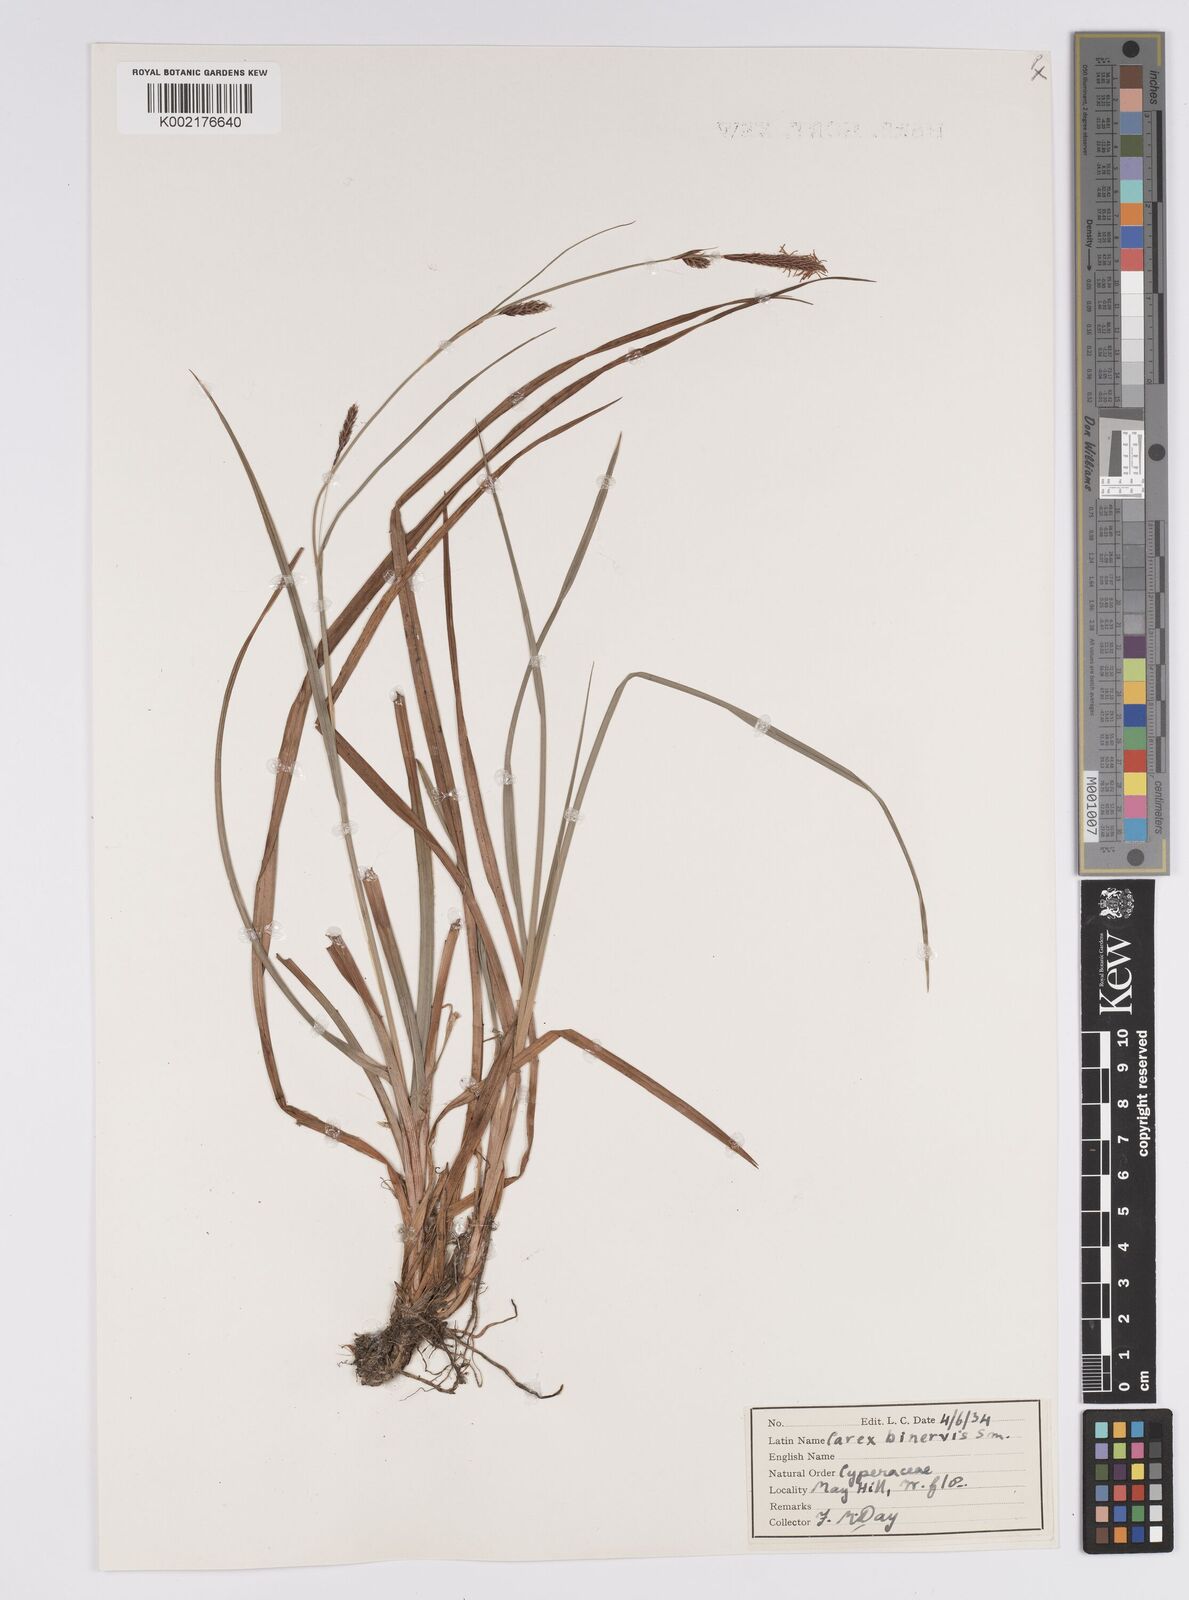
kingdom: Plantae
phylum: Tracheophyta
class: Liliopsida
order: Poales
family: Cyperaceae
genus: Carex
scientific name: Carex binervis
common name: Green-ribbed sedge
